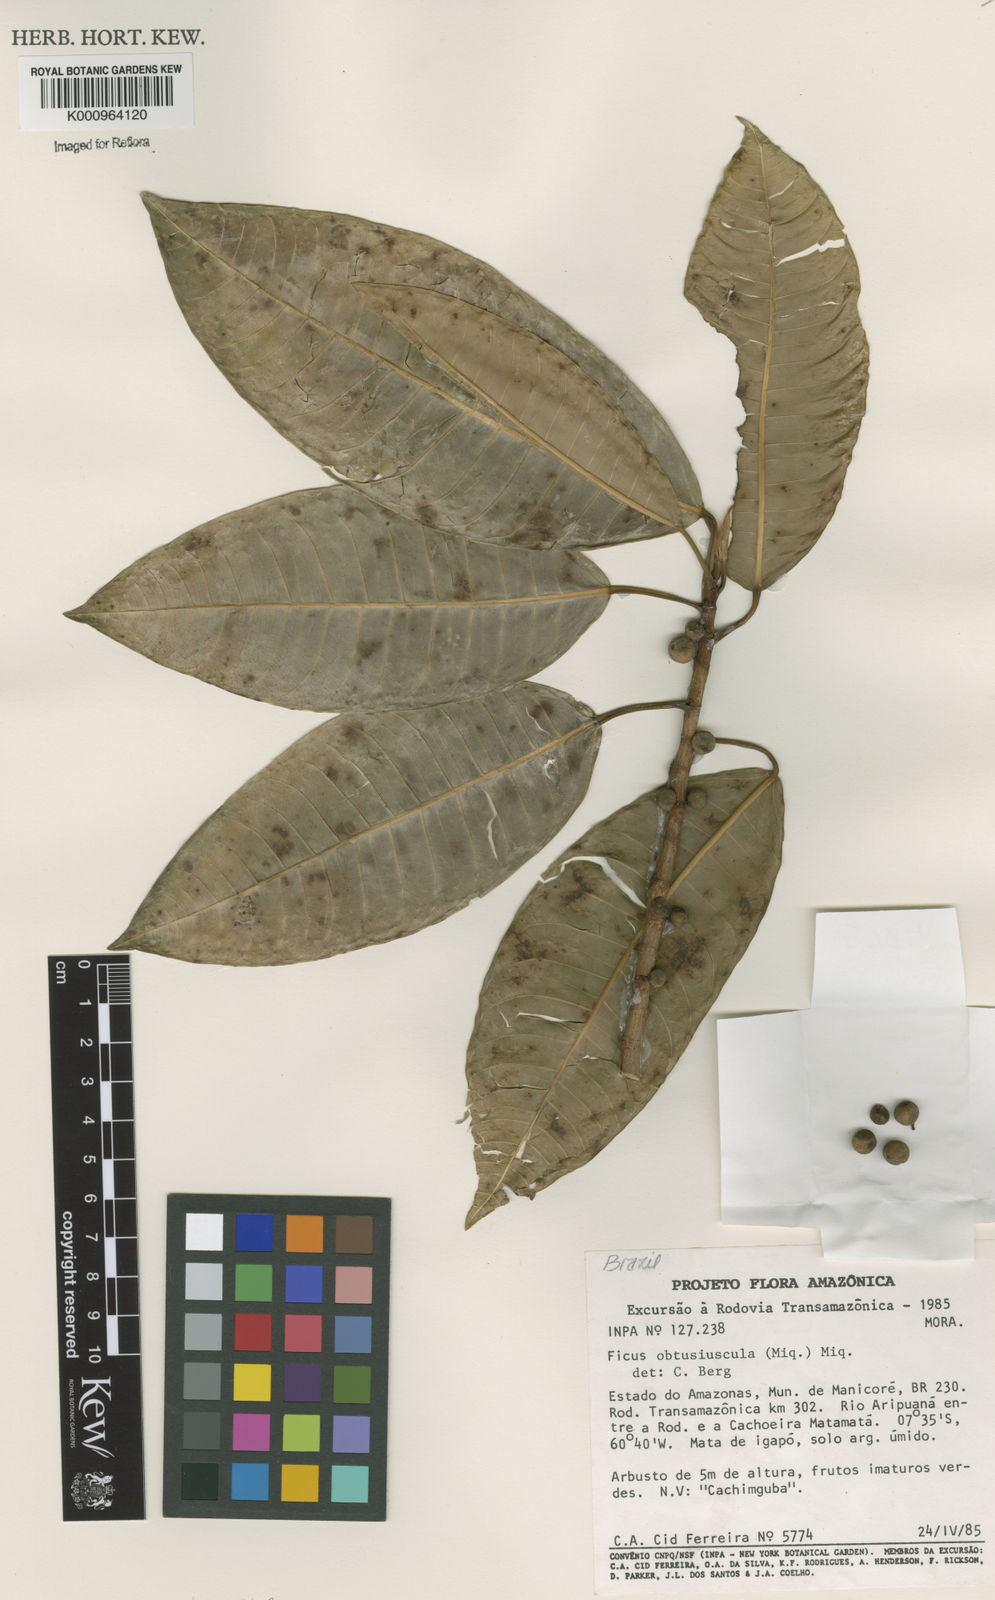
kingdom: Plantae
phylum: Tracheophyta
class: Magnoliopsida
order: Rosales
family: Moraceae
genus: Ficus
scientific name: Ficus obtusiuscula
